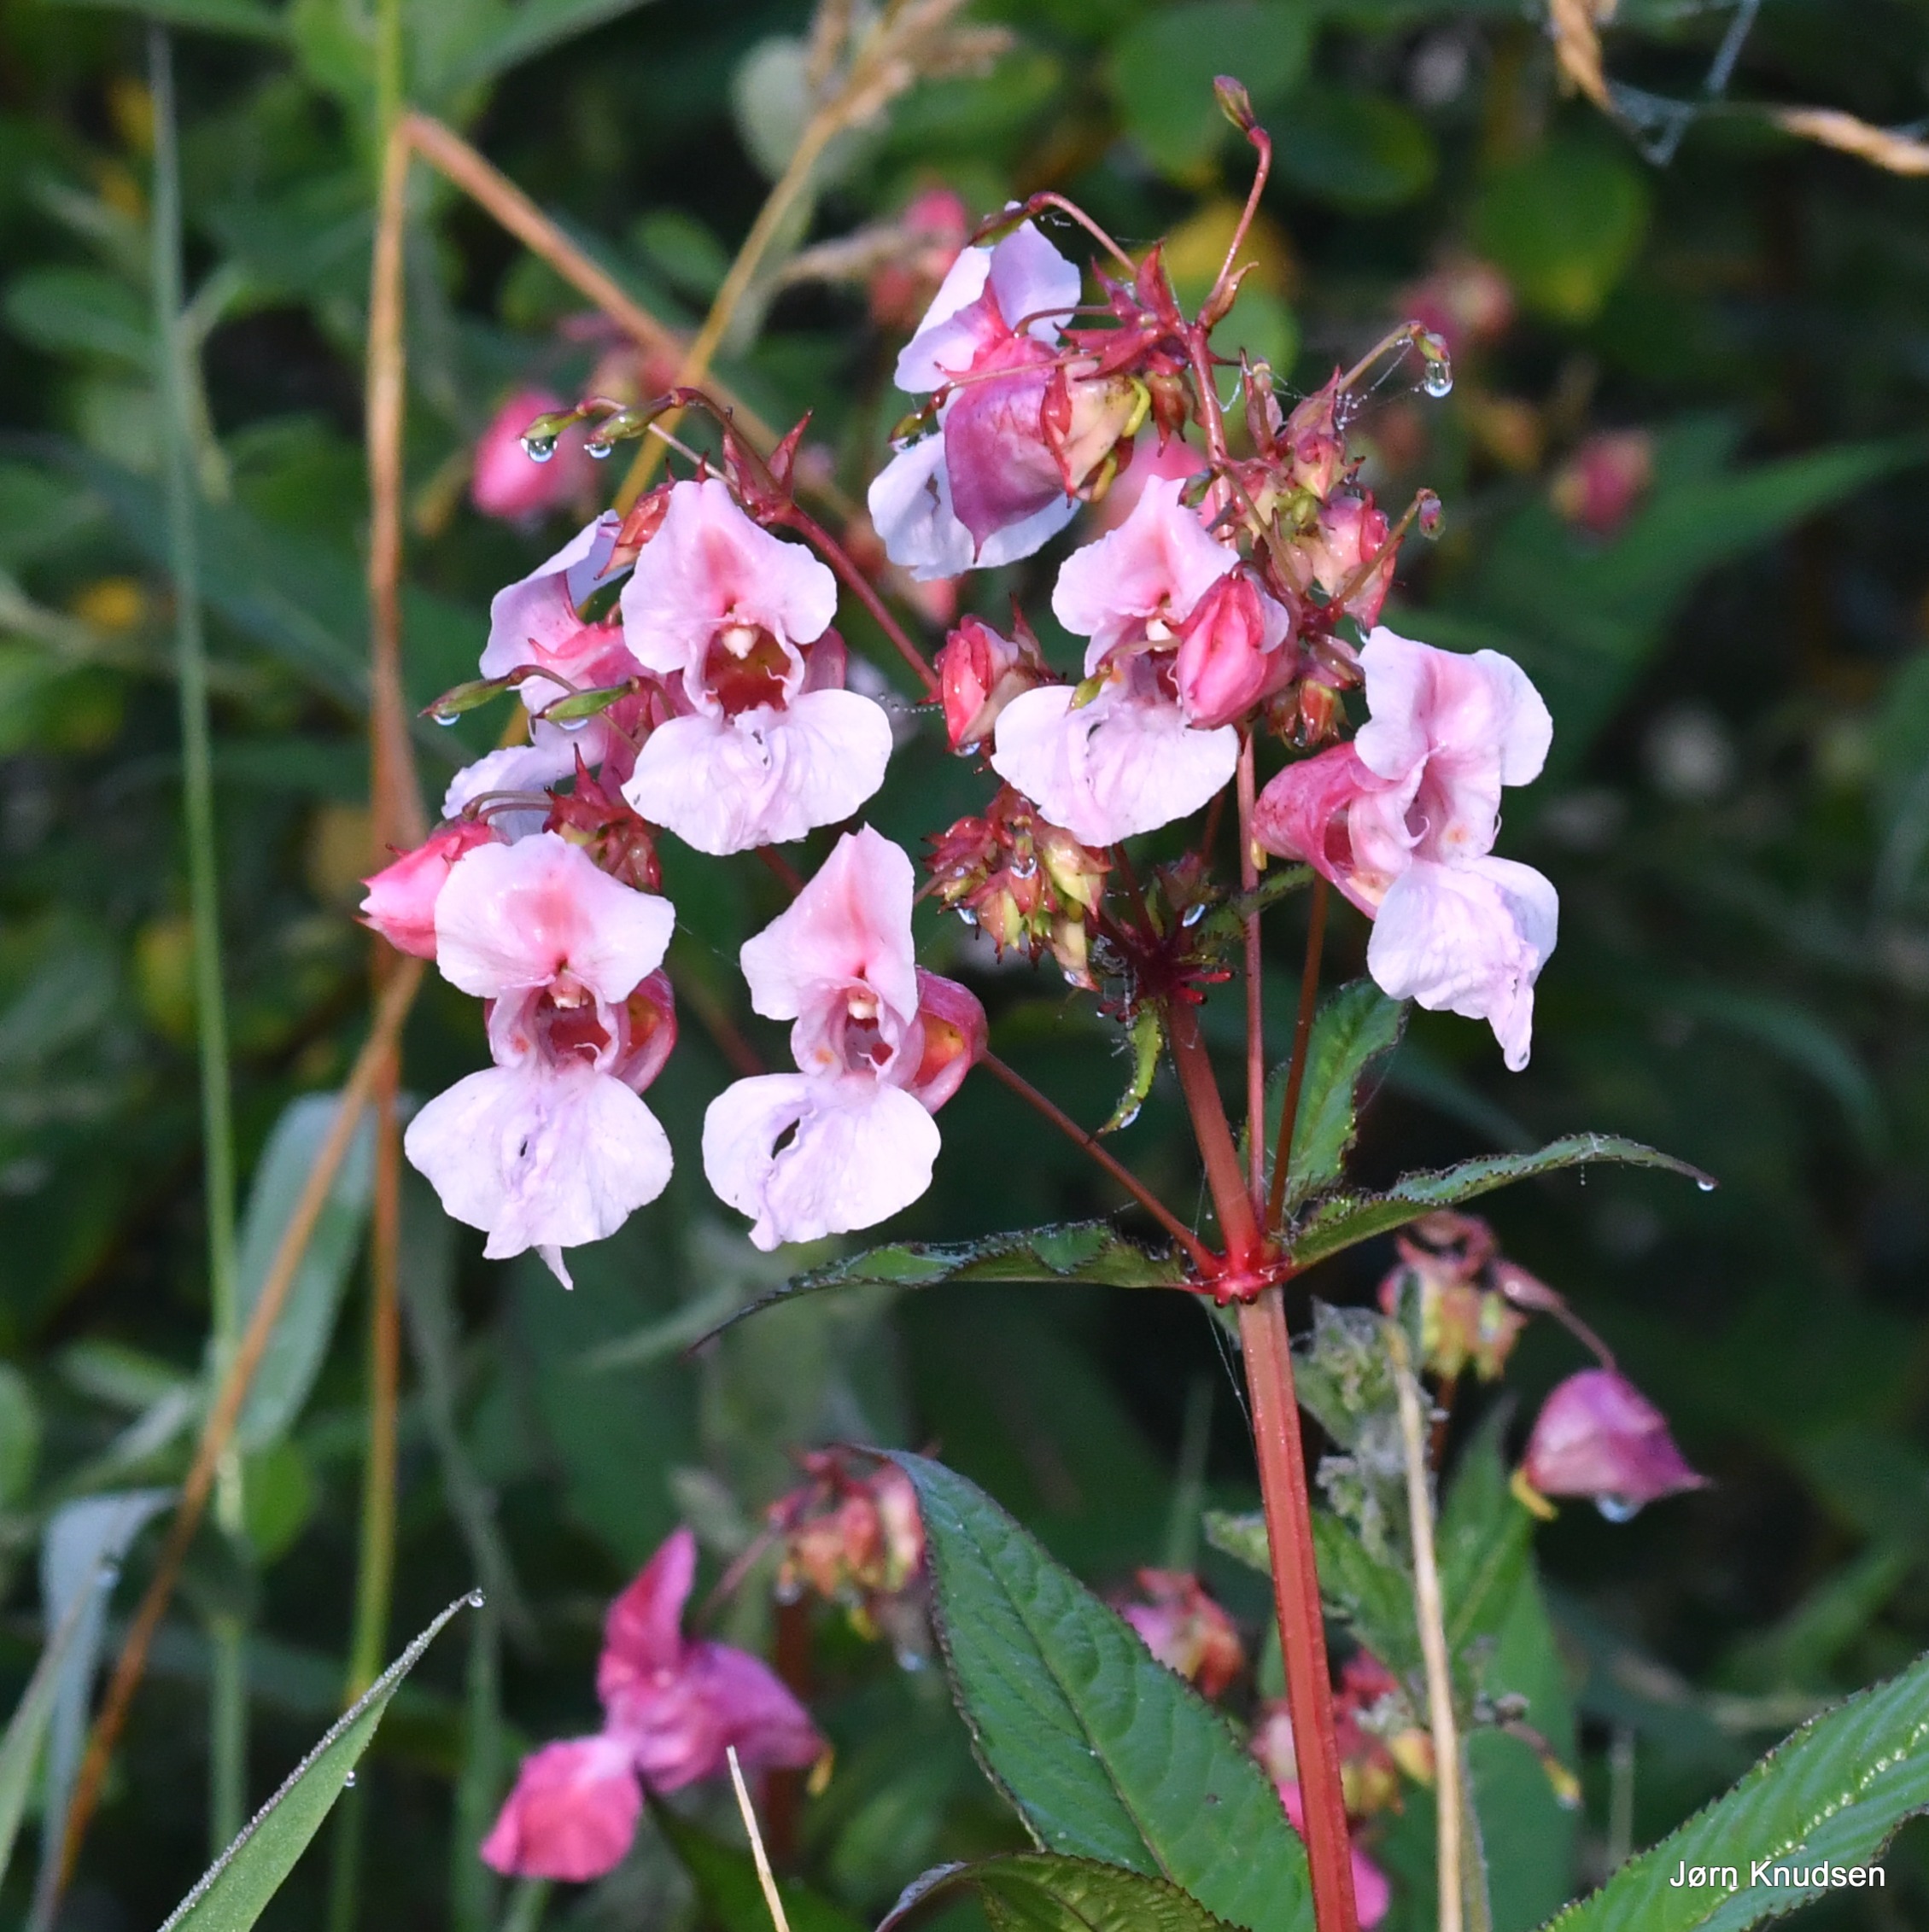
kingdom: Plantae
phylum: Tracheophyta
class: Magnoliopsida
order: Ericales
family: Balsaminaceae
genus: Impatiens
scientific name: Impatiens glandulifera
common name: Kæmpe-balsamin
